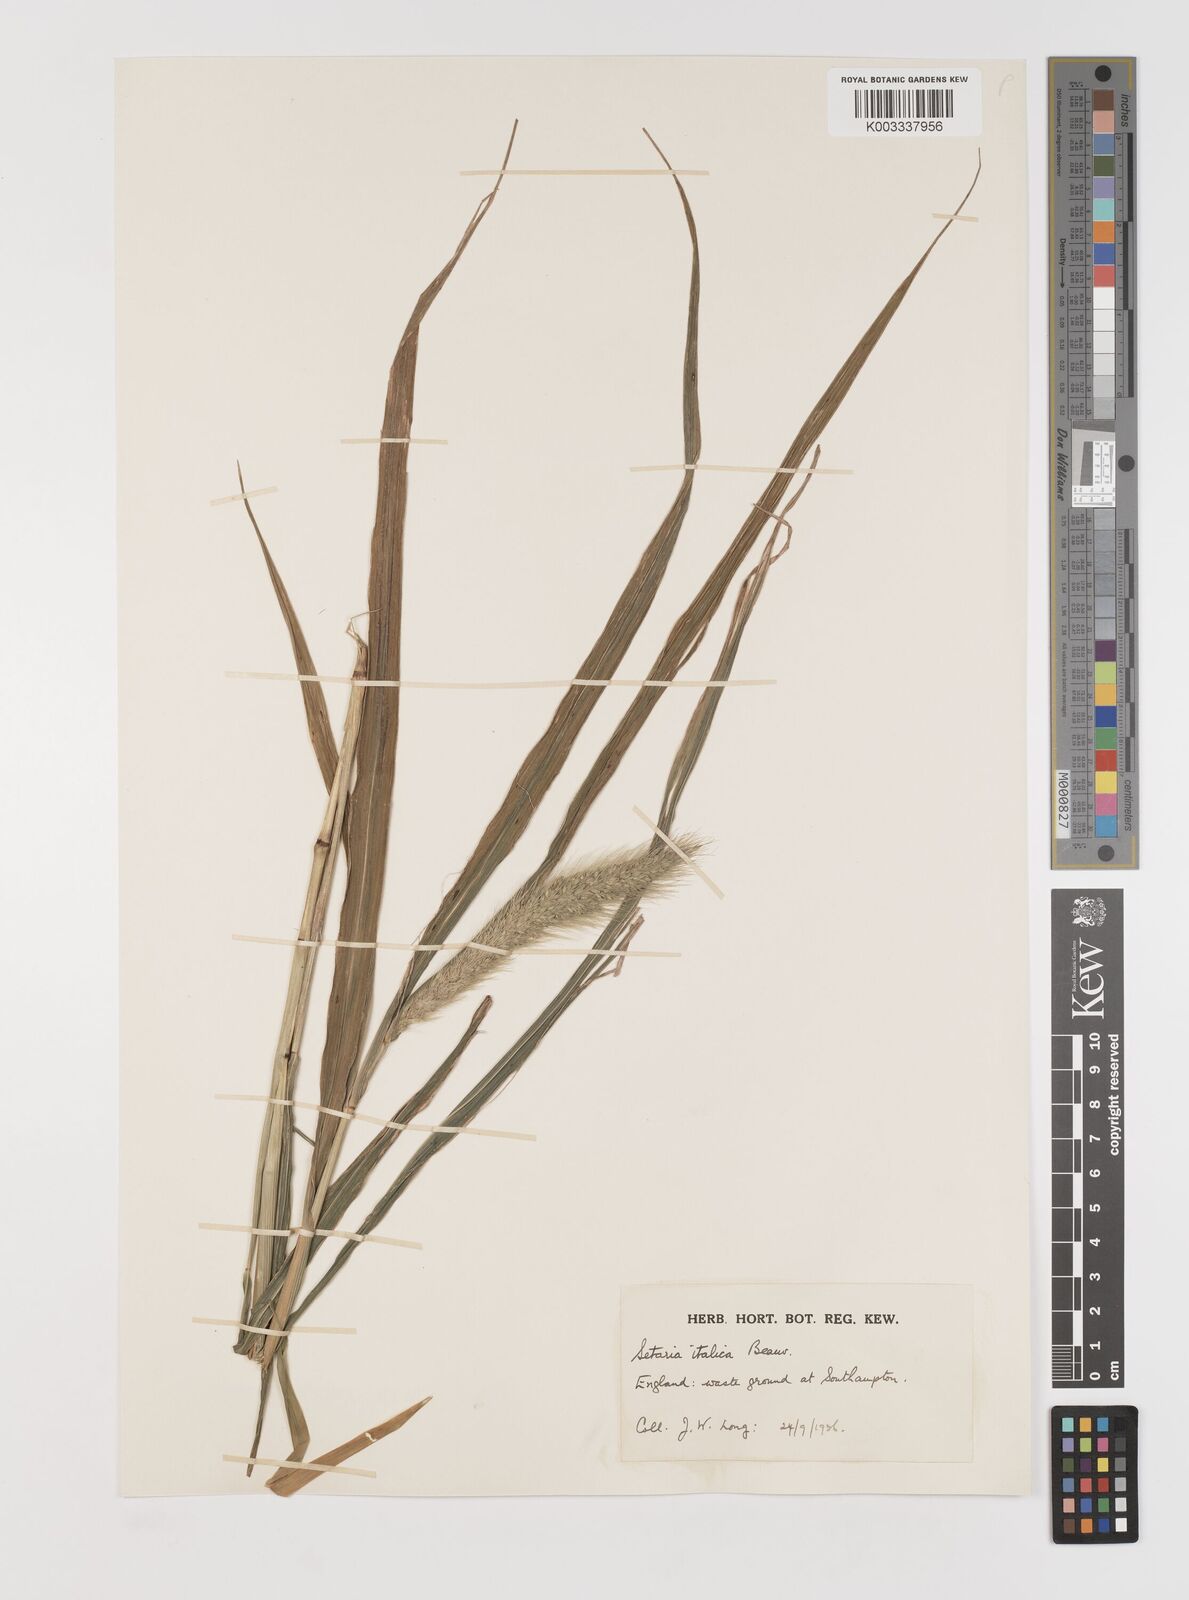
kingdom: Plantae
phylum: Tracheophyta
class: Liliopsida
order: Poales
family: Poaceae
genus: Setaria
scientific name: Setaria italica
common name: Foxtail bristle-grass
